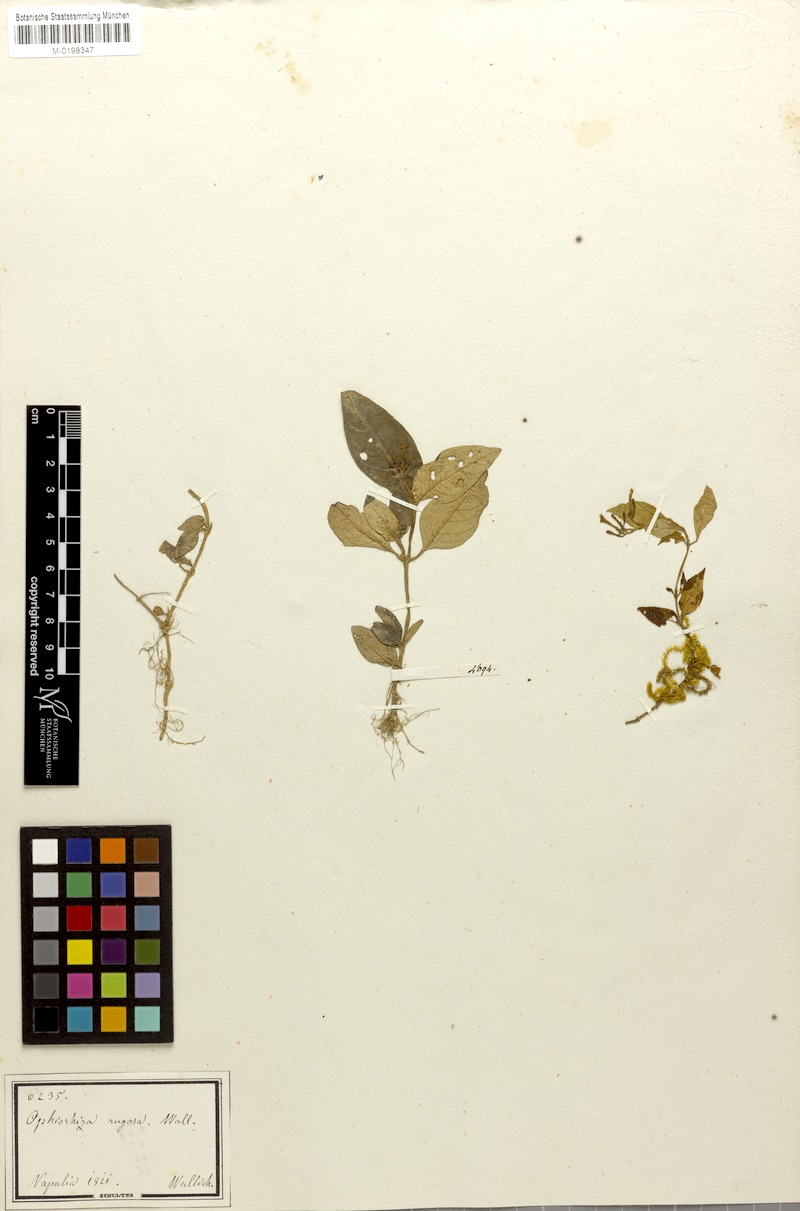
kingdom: Plantae
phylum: Tracheophyta
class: Magnoliopsida
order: Gentianales
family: Rubiaceae
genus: Ophiorrhiza
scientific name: Ophiorrhiza rugosa
